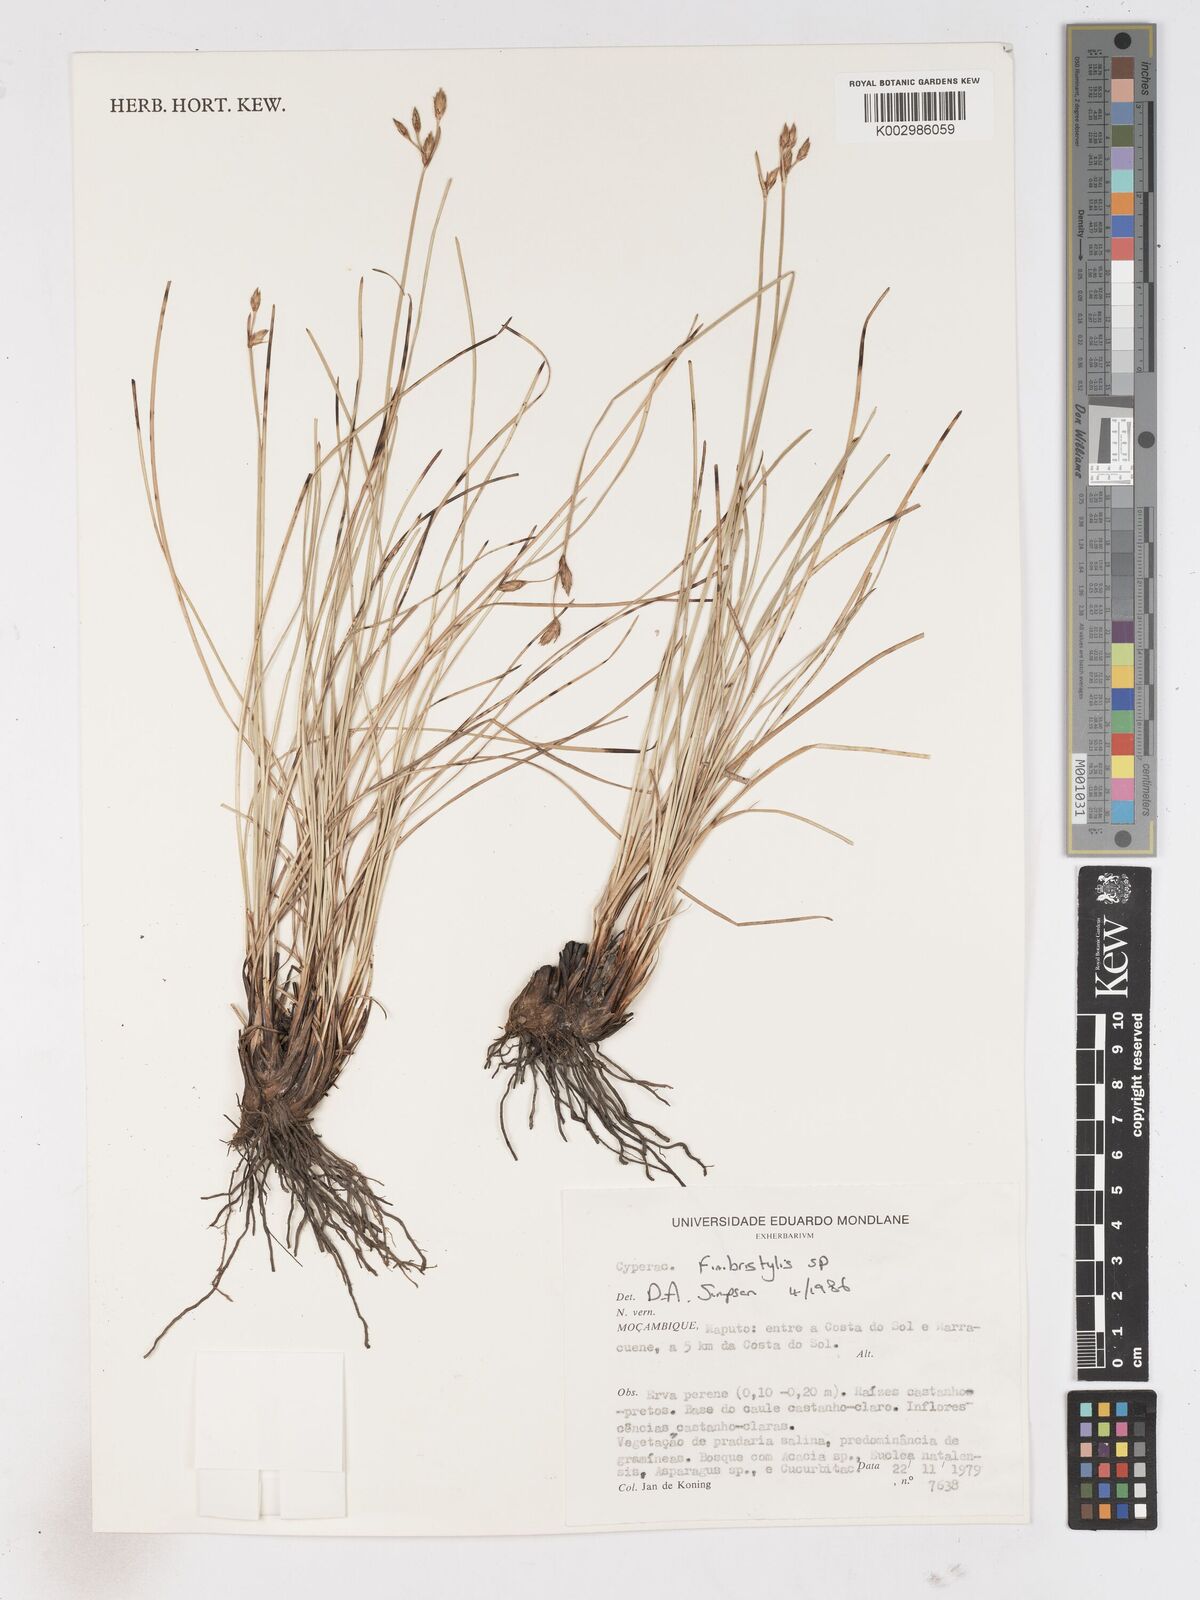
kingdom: Plantae
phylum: Tracheophyta
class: Liliopsida
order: Poales
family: Cyperaceae
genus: Fimbristylis
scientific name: Fimbristylis
